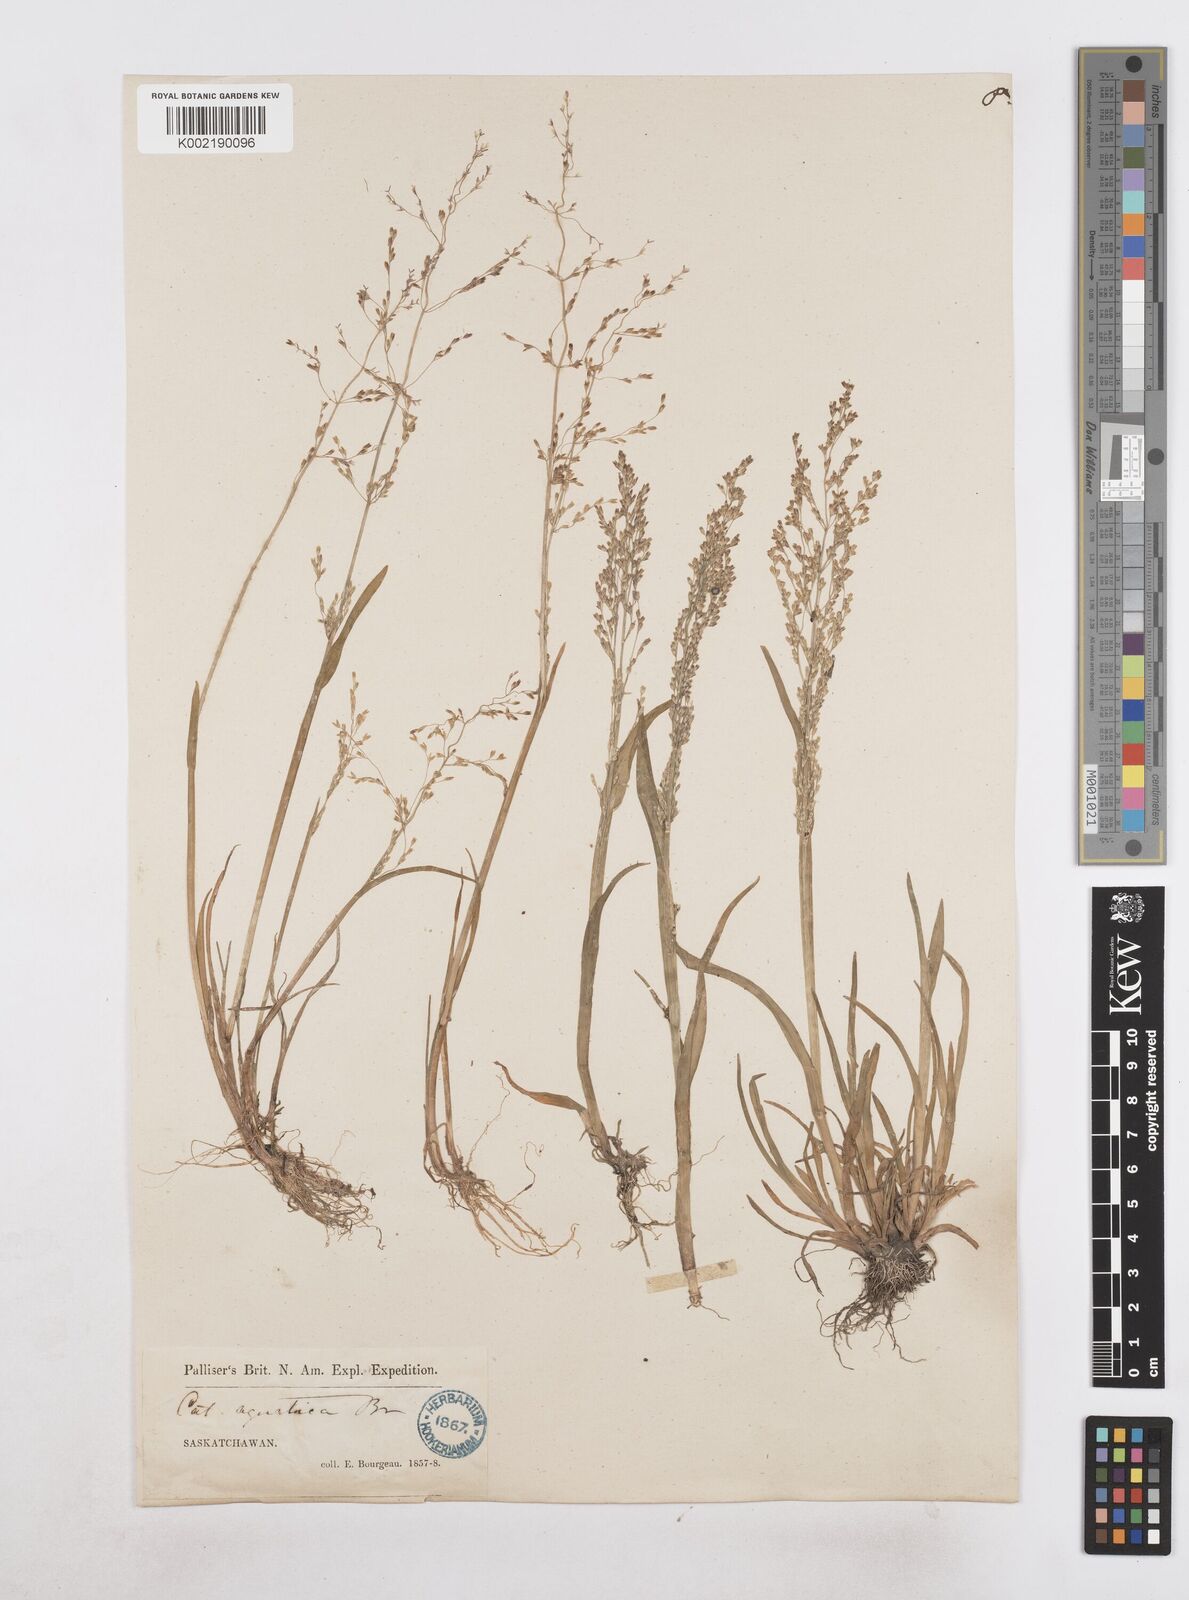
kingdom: Plantae
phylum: Tracheophyta
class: Liliopsida
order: Poales
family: Poaceae
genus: Catabrosa
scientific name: Catabrosa aquatica
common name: Whorl-grass
